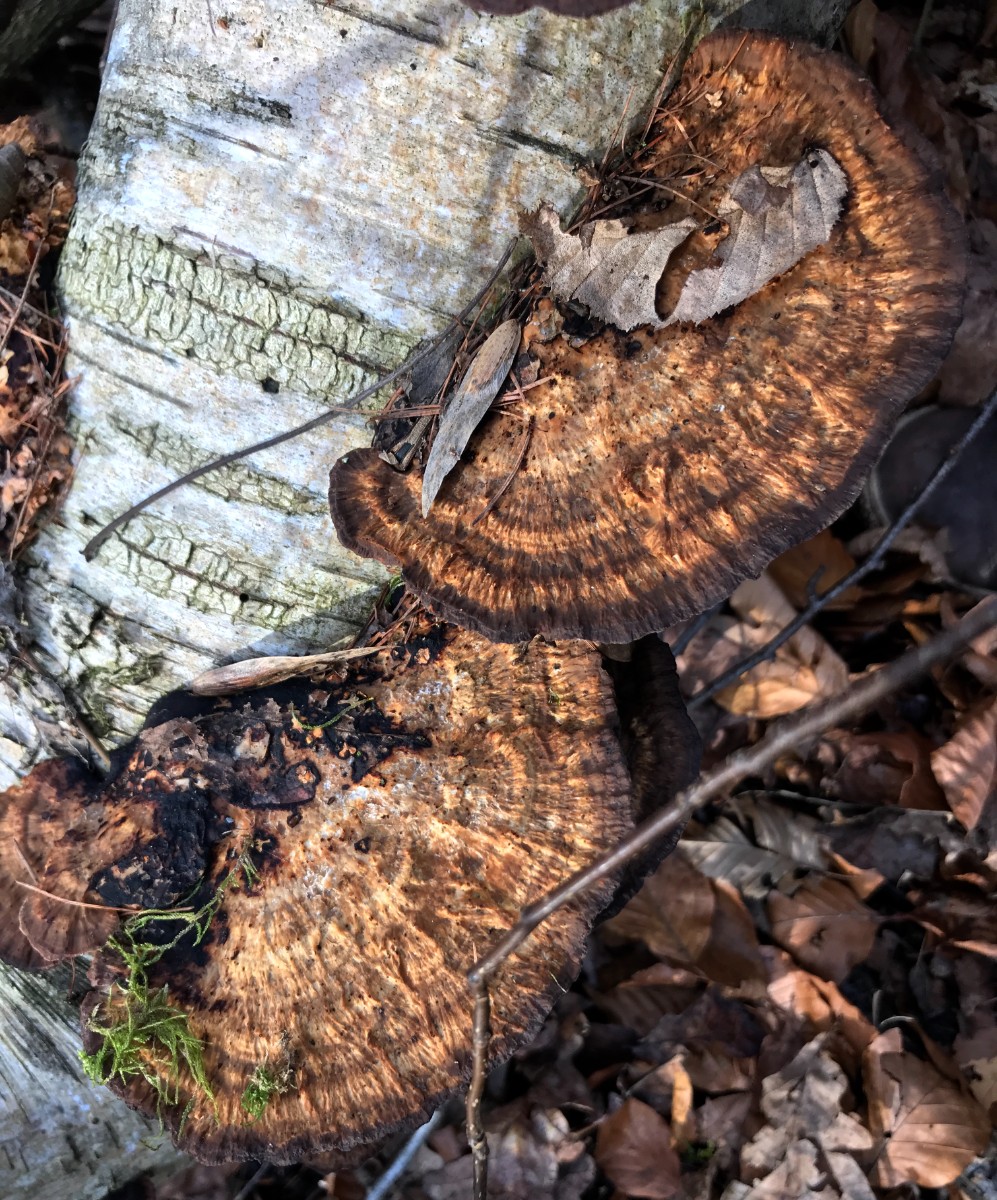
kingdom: Fungi
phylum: Basidiomycota
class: Agaricomycetes
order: Polyporales
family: Polyporaceae
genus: Daedaleopsis
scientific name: Daedaleopsis confragosa
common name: rødmende læderporesvamp
